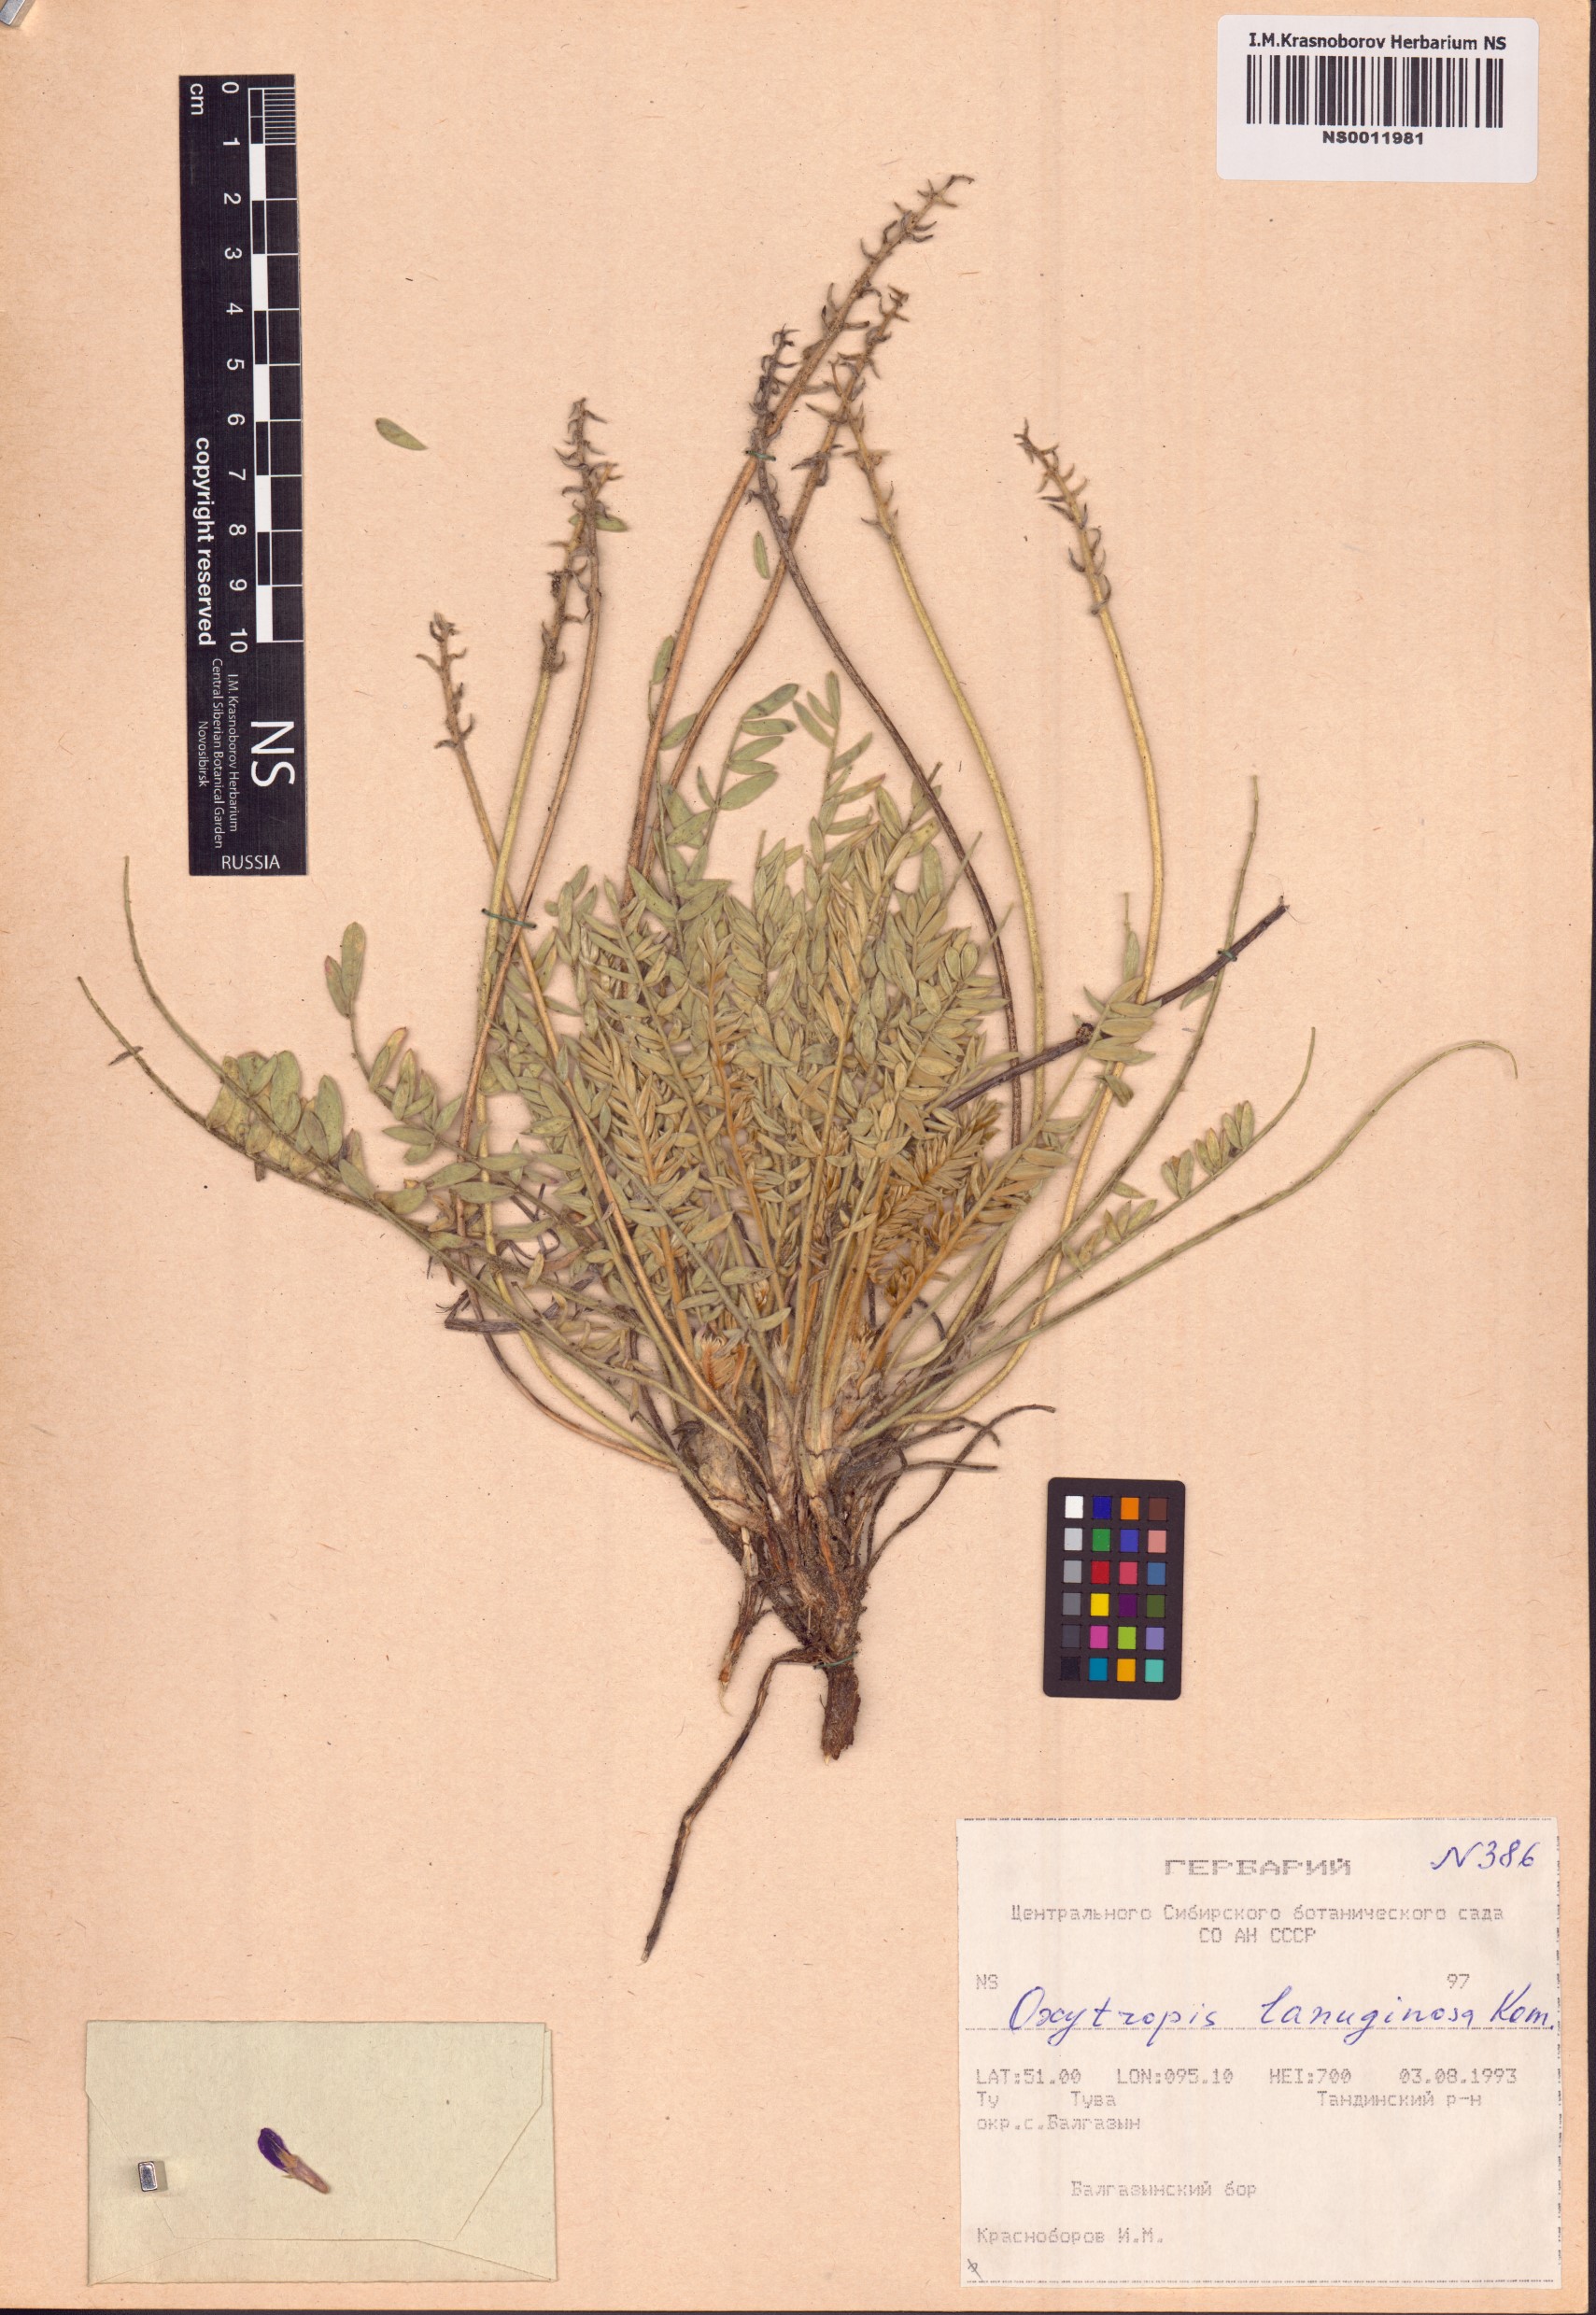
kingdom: Plantae
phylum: Tracheophyta
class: Magnoliopsida
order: Fabales
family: Fabaceae
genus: Oxytropis
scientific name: Oxytropis lanuginosa
